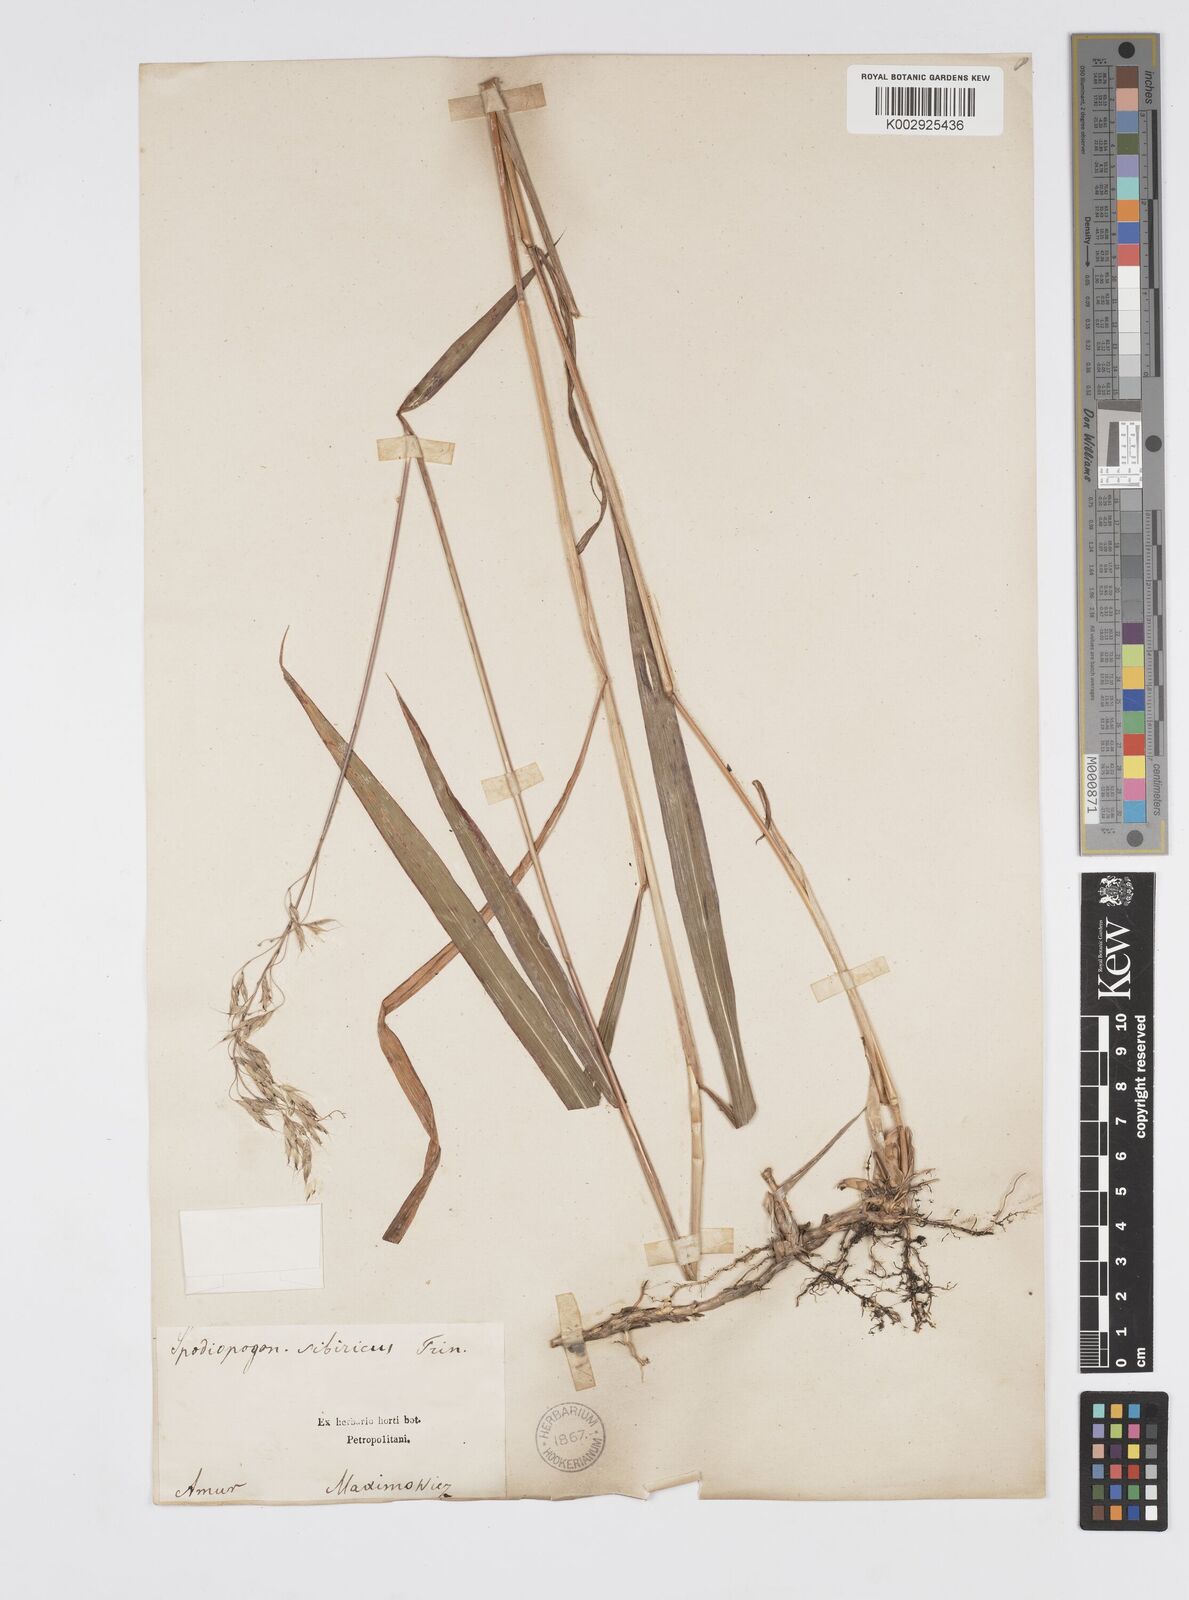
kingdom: Plantae
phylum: Tracheophyta
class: Liliopsida
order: Poales
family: Poaceae
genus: Spodiopogon
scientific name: Spodiopogon sibiricus
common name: Siberian graybeard
